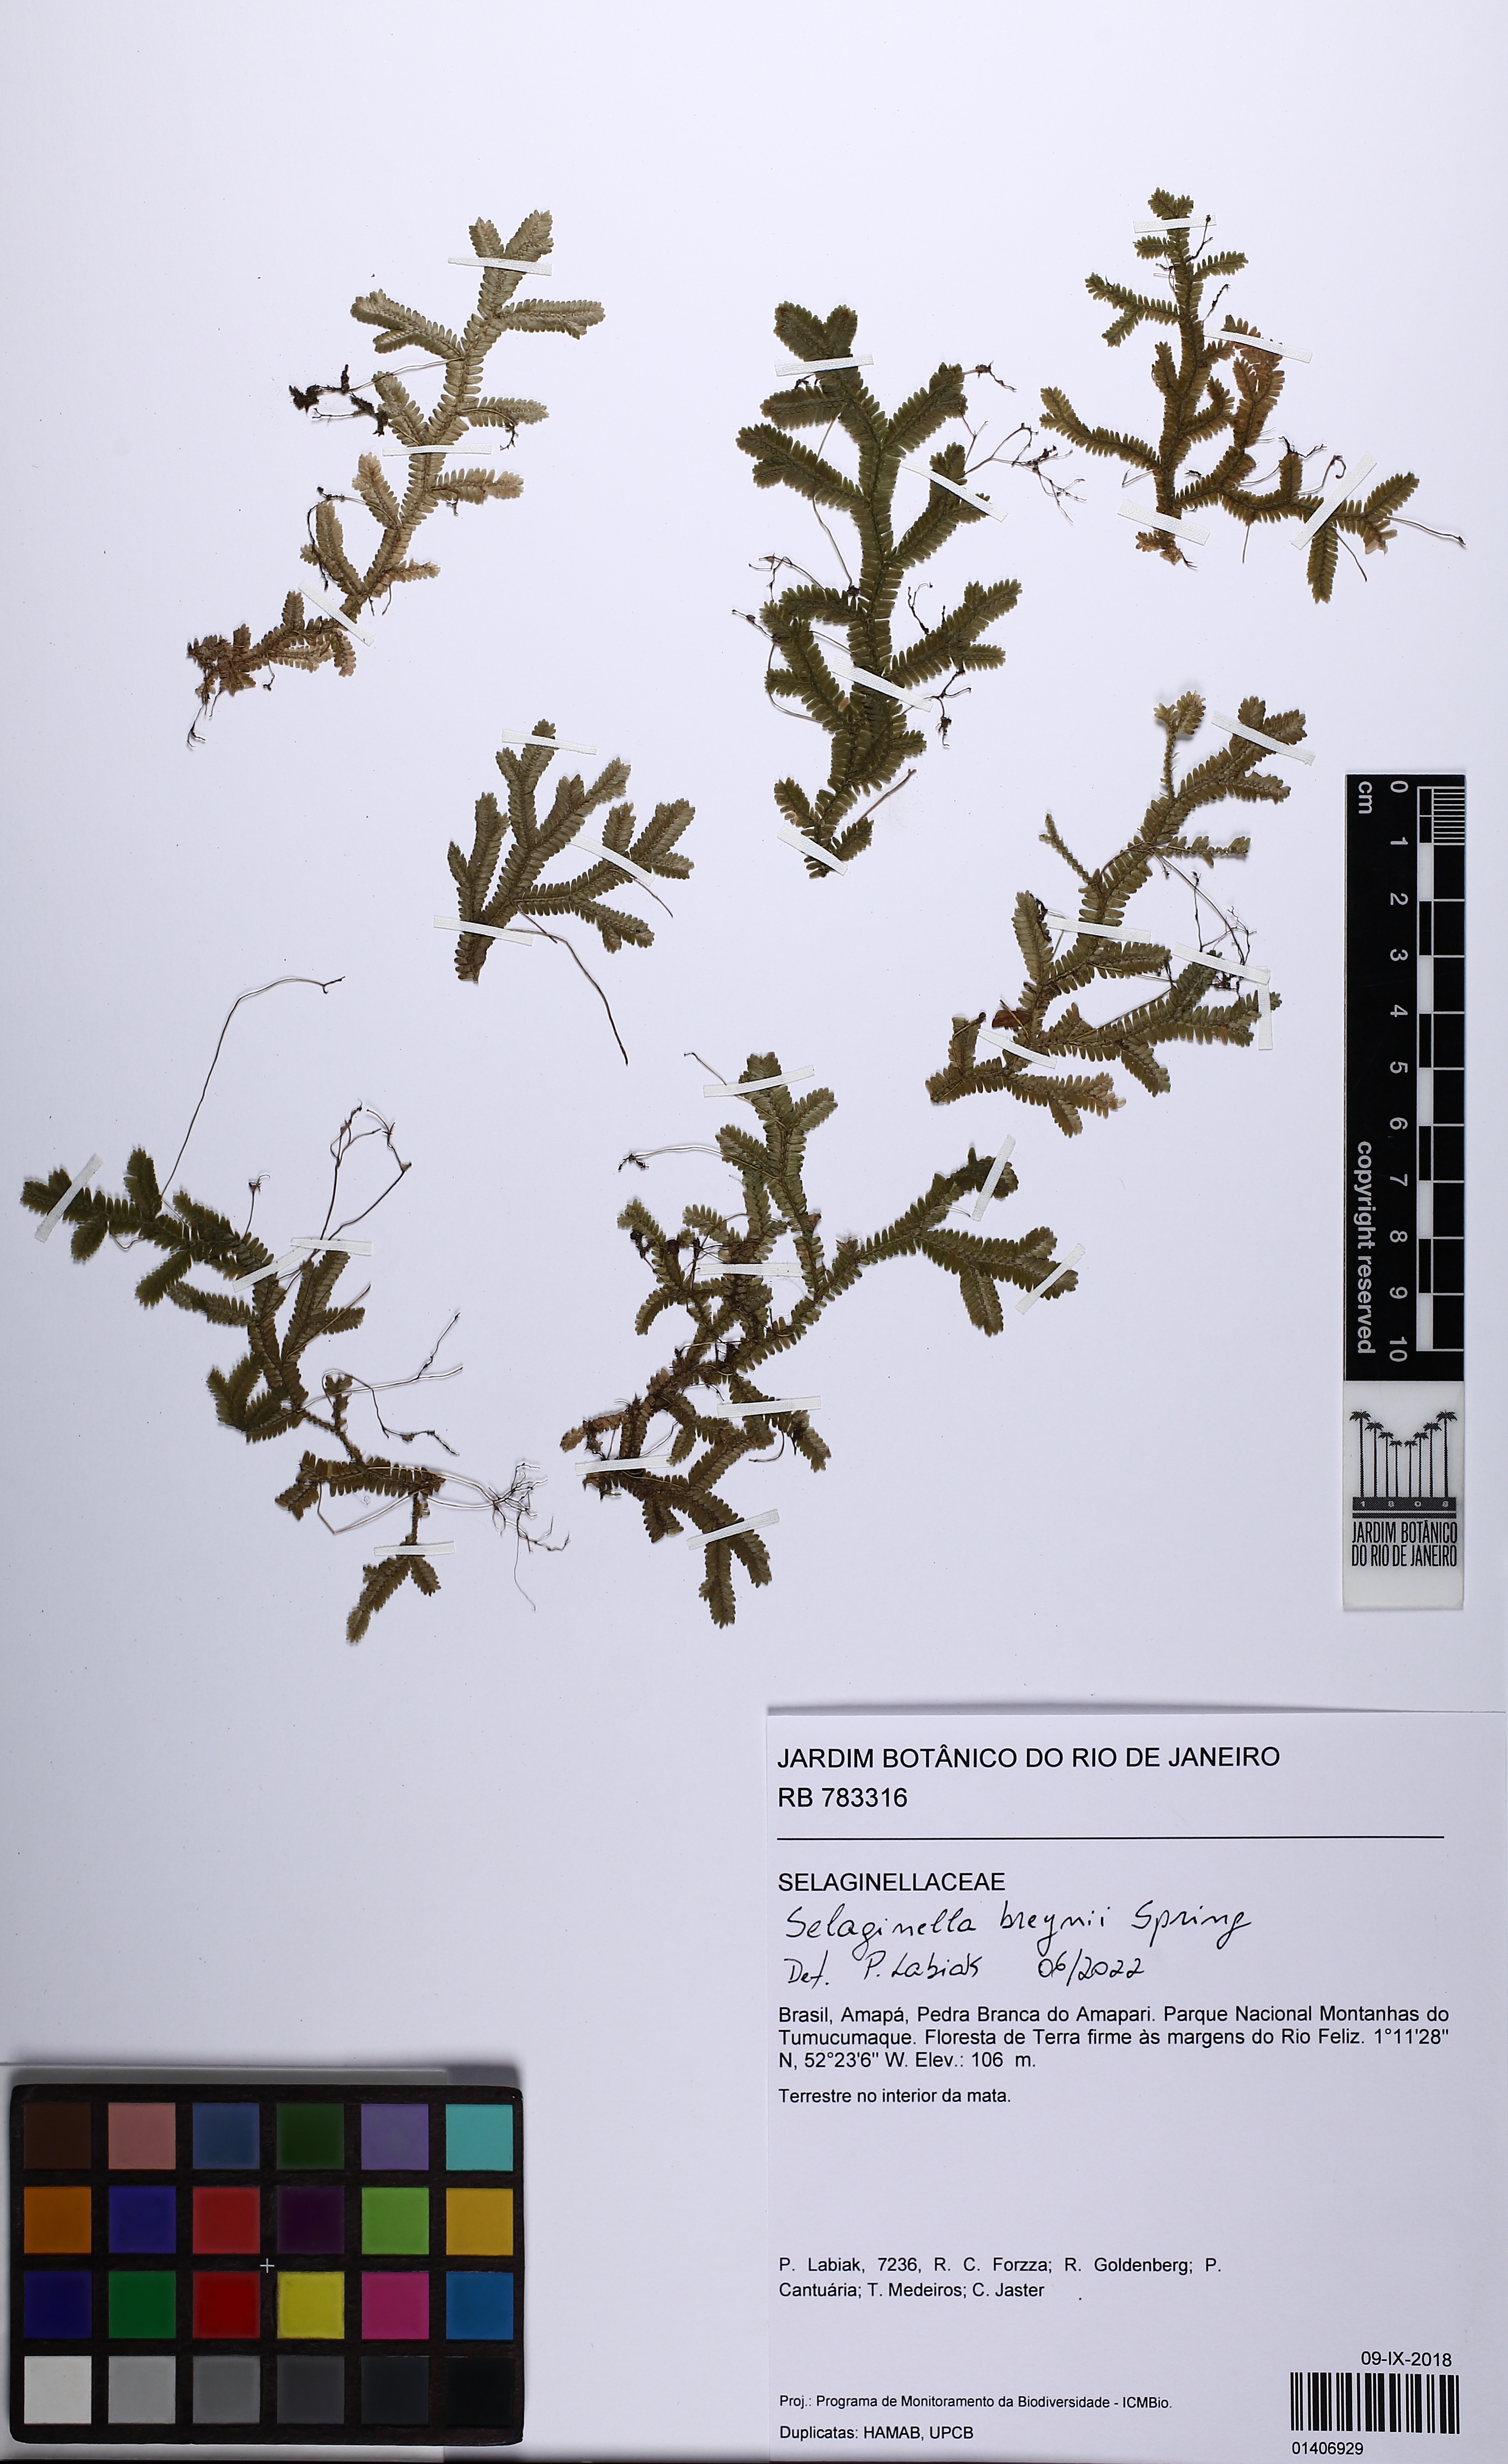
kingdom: Plantae
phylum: Tracheophyta
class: Lycopodiopsida
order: Selaginellales
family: Selaginellaceae
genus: Selaginella
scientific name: Selaginella breynii
